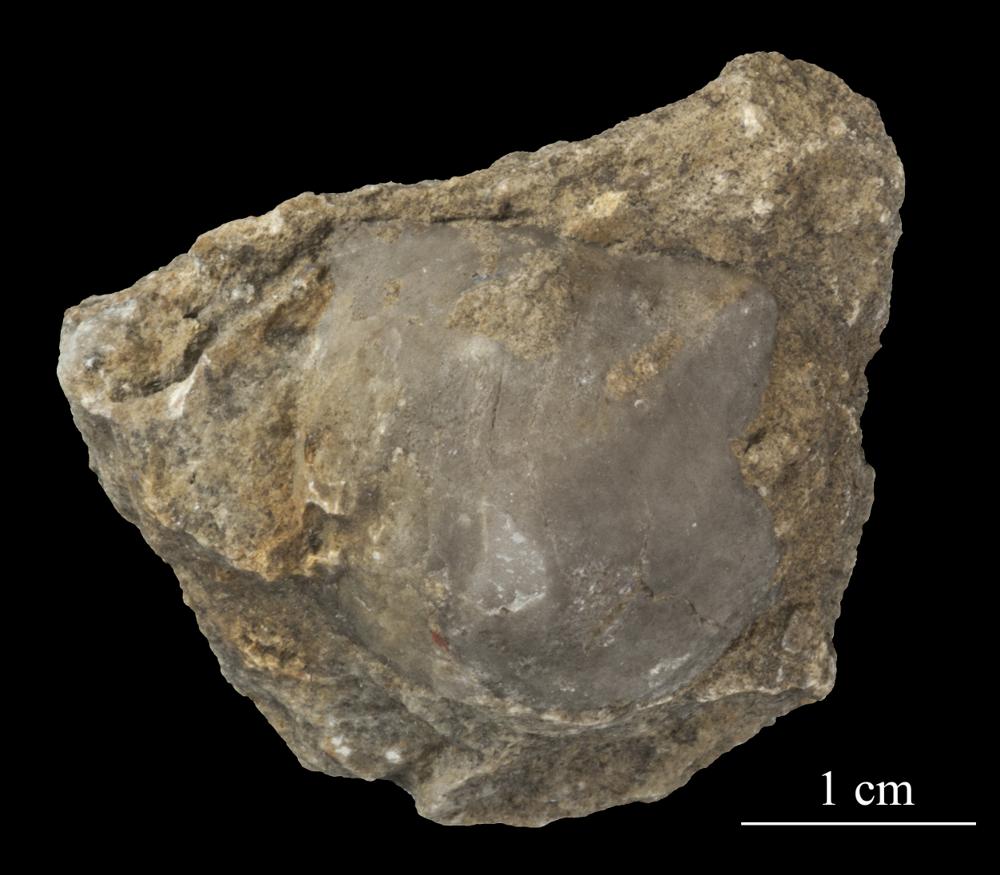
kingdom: Animalia
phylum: Brachiopoda
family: Strophomenidae
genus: Tallinnites
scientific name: Tallinnites Oepikina imbrexoidea
